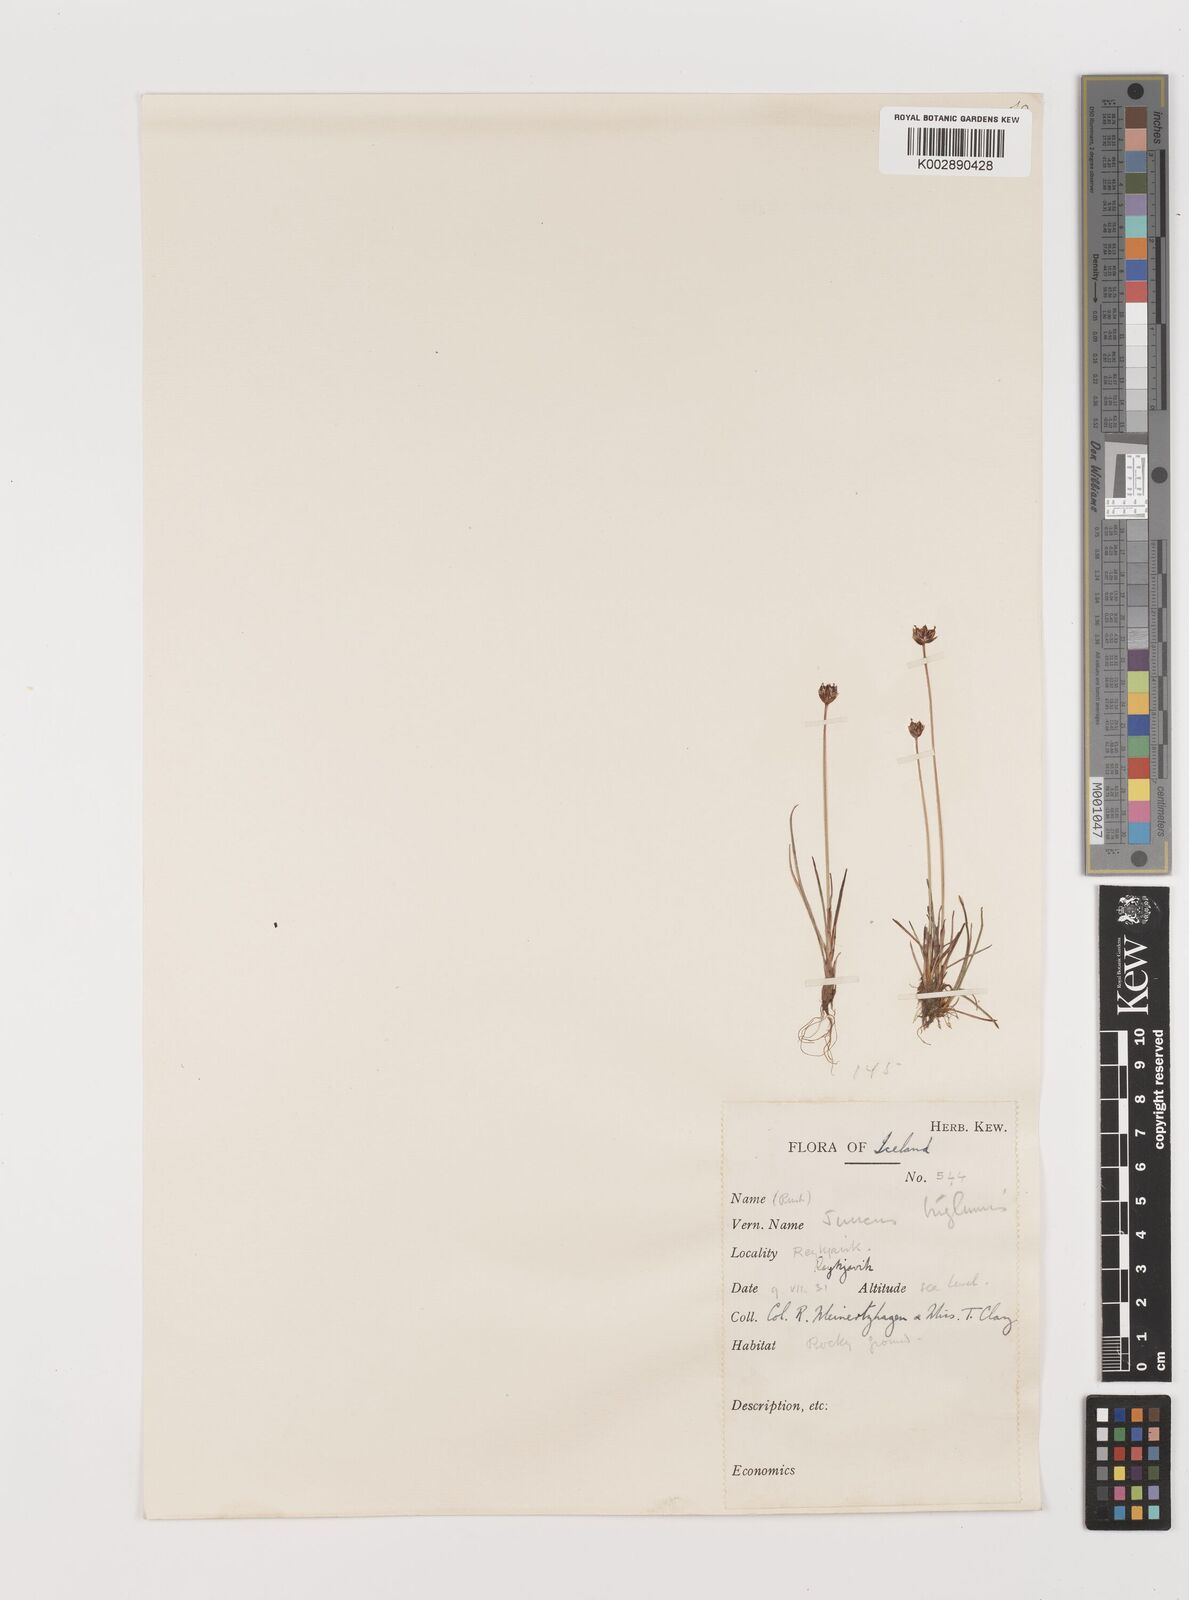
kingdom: Plantae
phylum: Tracheophyta
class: Liliopsida
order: Poales
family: Juncaceae
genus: Juncus
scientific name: Juncus triglumis
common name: Three-flowered rush
